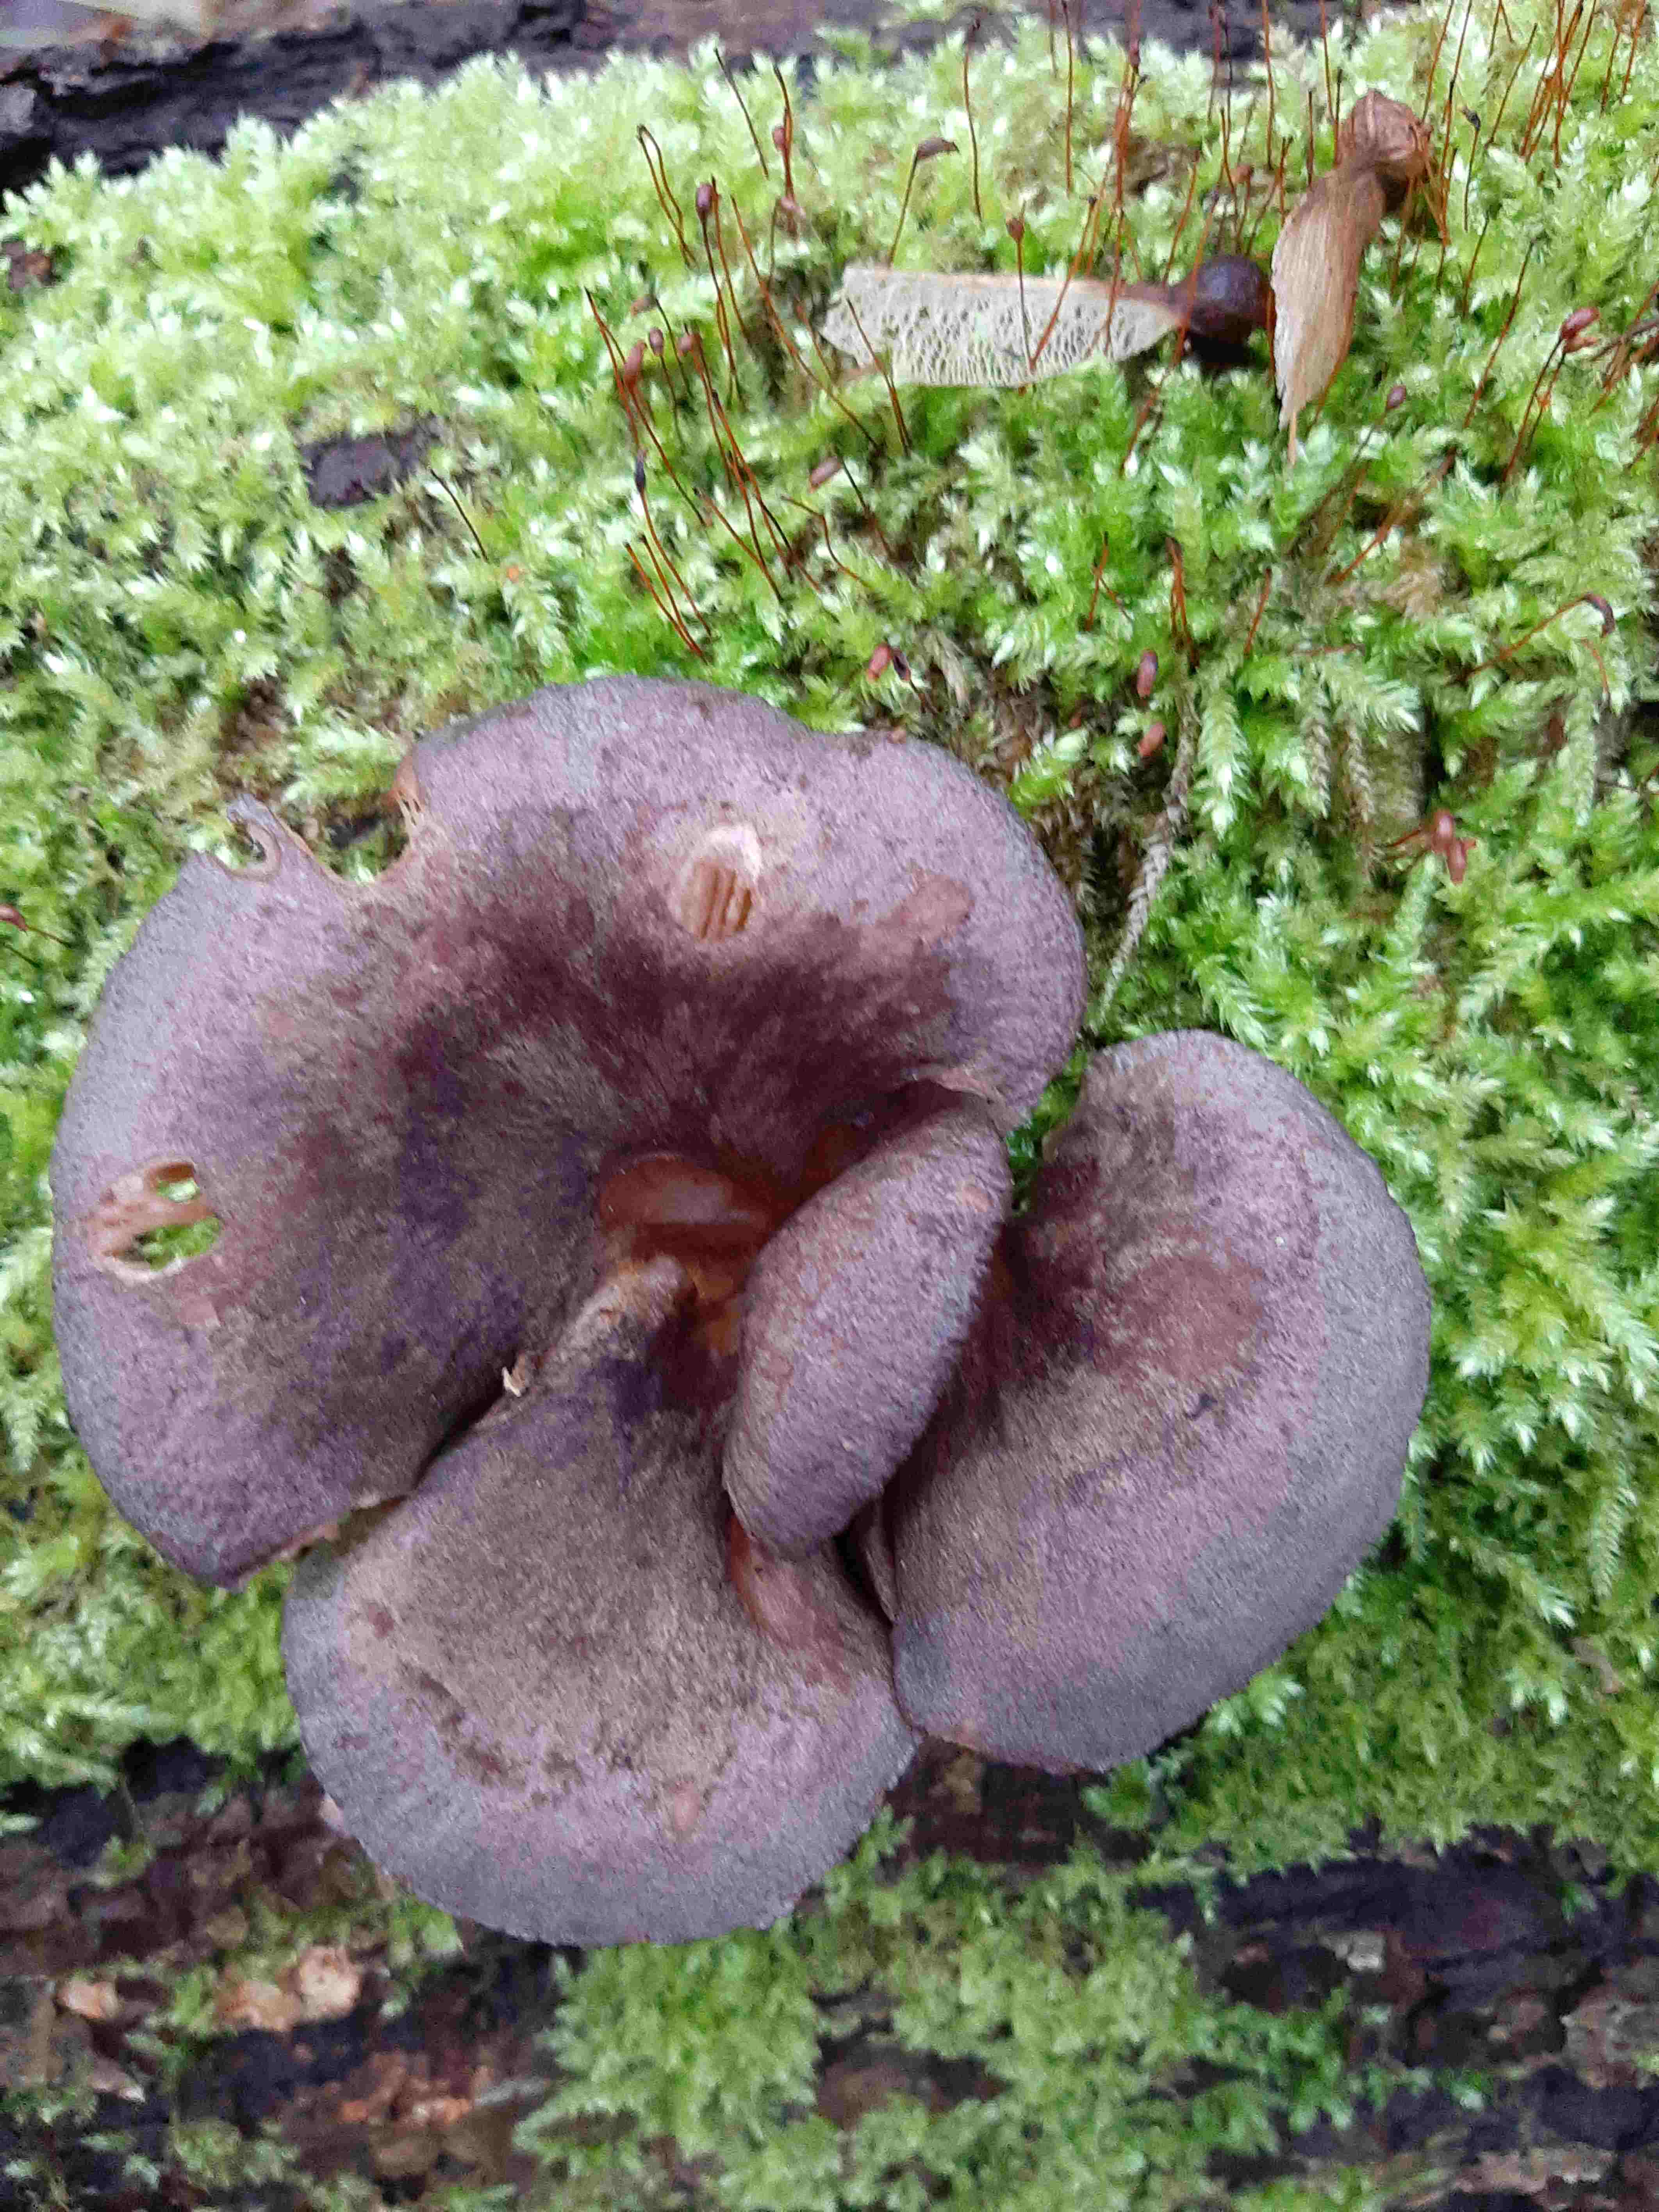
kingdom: Fungi
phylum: Basidiomycota
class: Agaricomycetes
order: Agaricales
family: Sarcomyxaceae
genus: Sarcomyxa
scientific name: Sarcomyxa serotina
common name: gummihat
